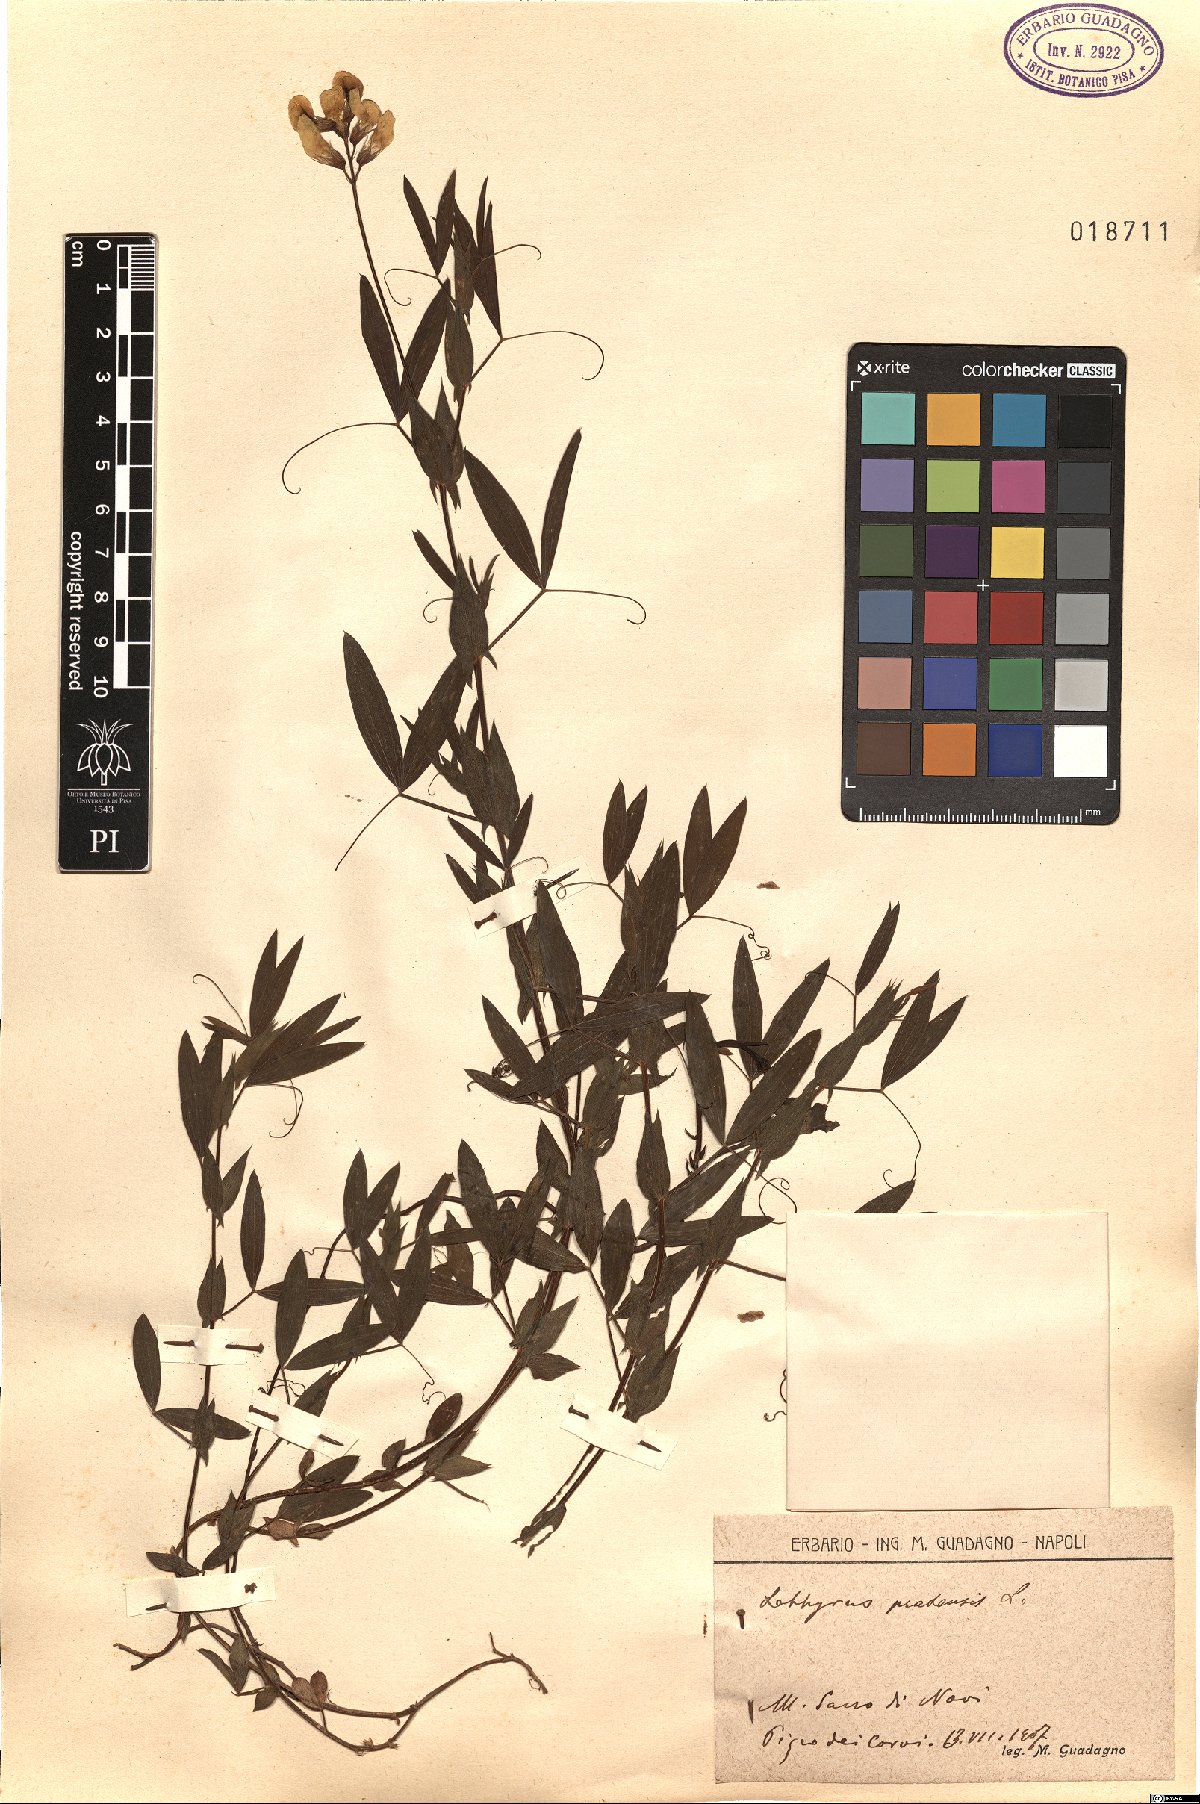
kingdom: Plantae
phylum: Tracheophyta
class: Magnoliopsida
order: Fabales
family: Fabaceae
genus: Lathyrus
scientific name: Lathyrus pratensis
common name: Meadow vetchling
